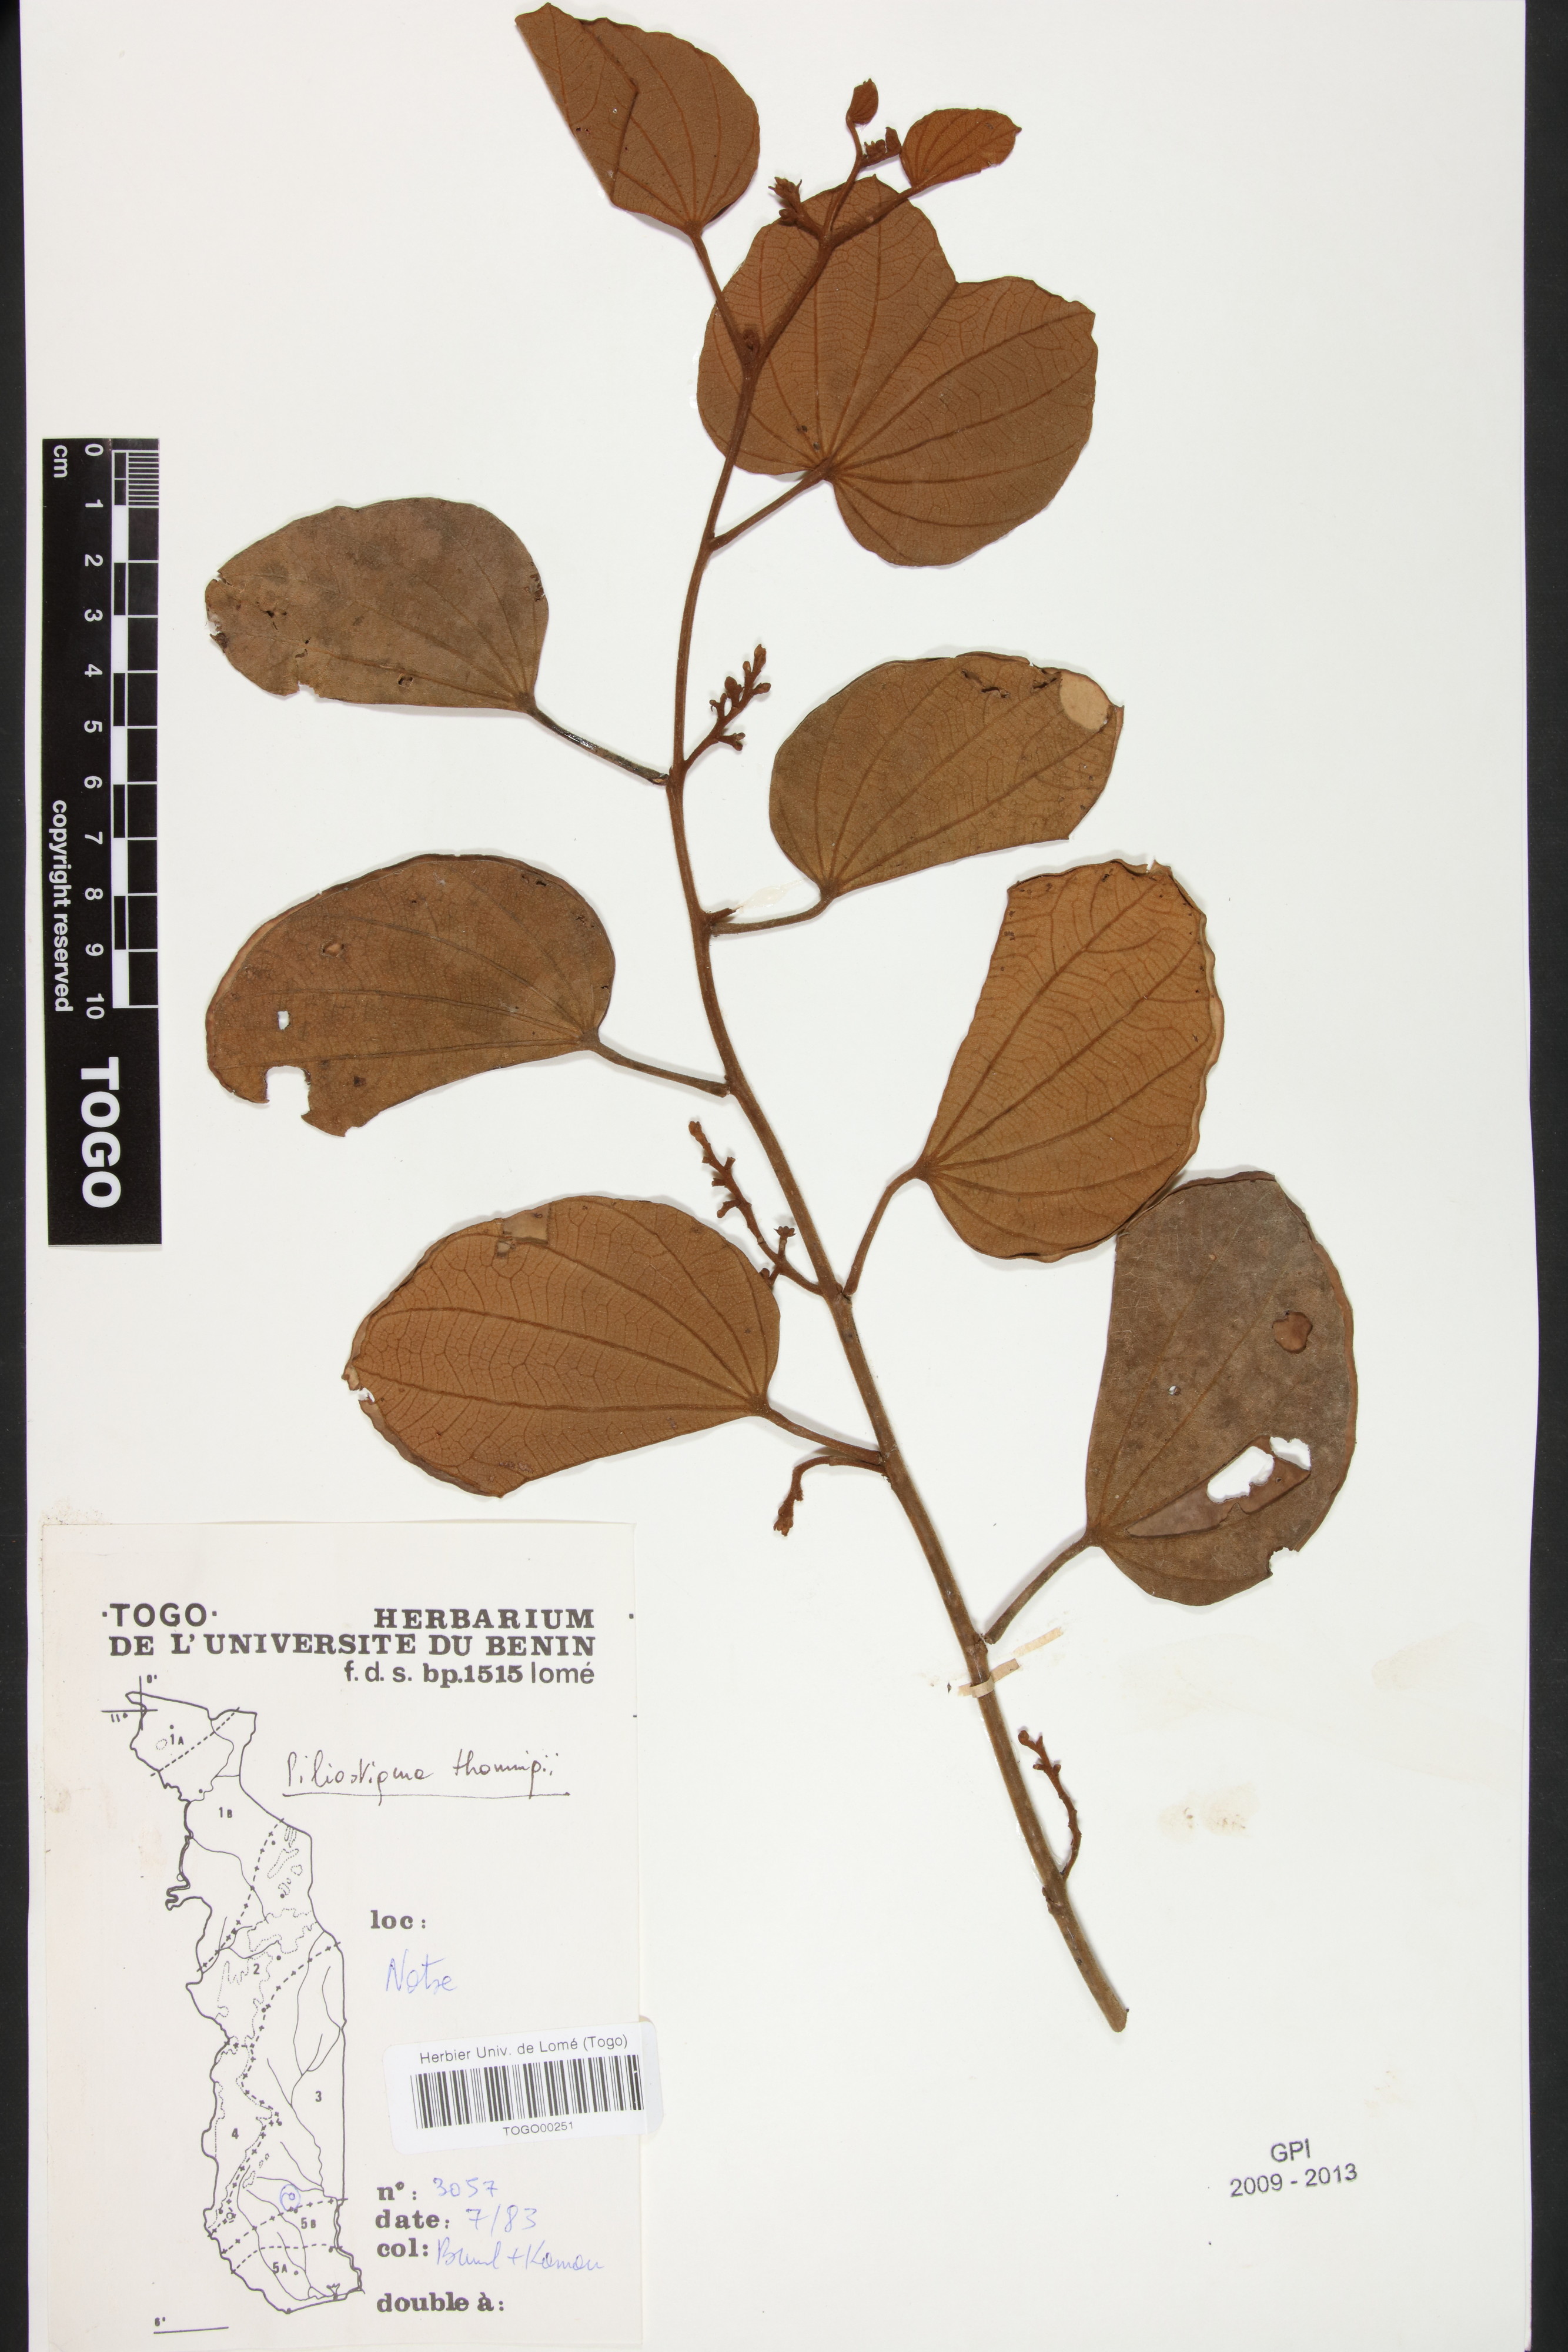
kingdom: Plantae
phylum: Tracheophyta
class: Magnoliopsida
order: Fabales
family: Fabaceae
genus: Piliostigma
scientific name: Piliostigma thonningii
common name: Kao
